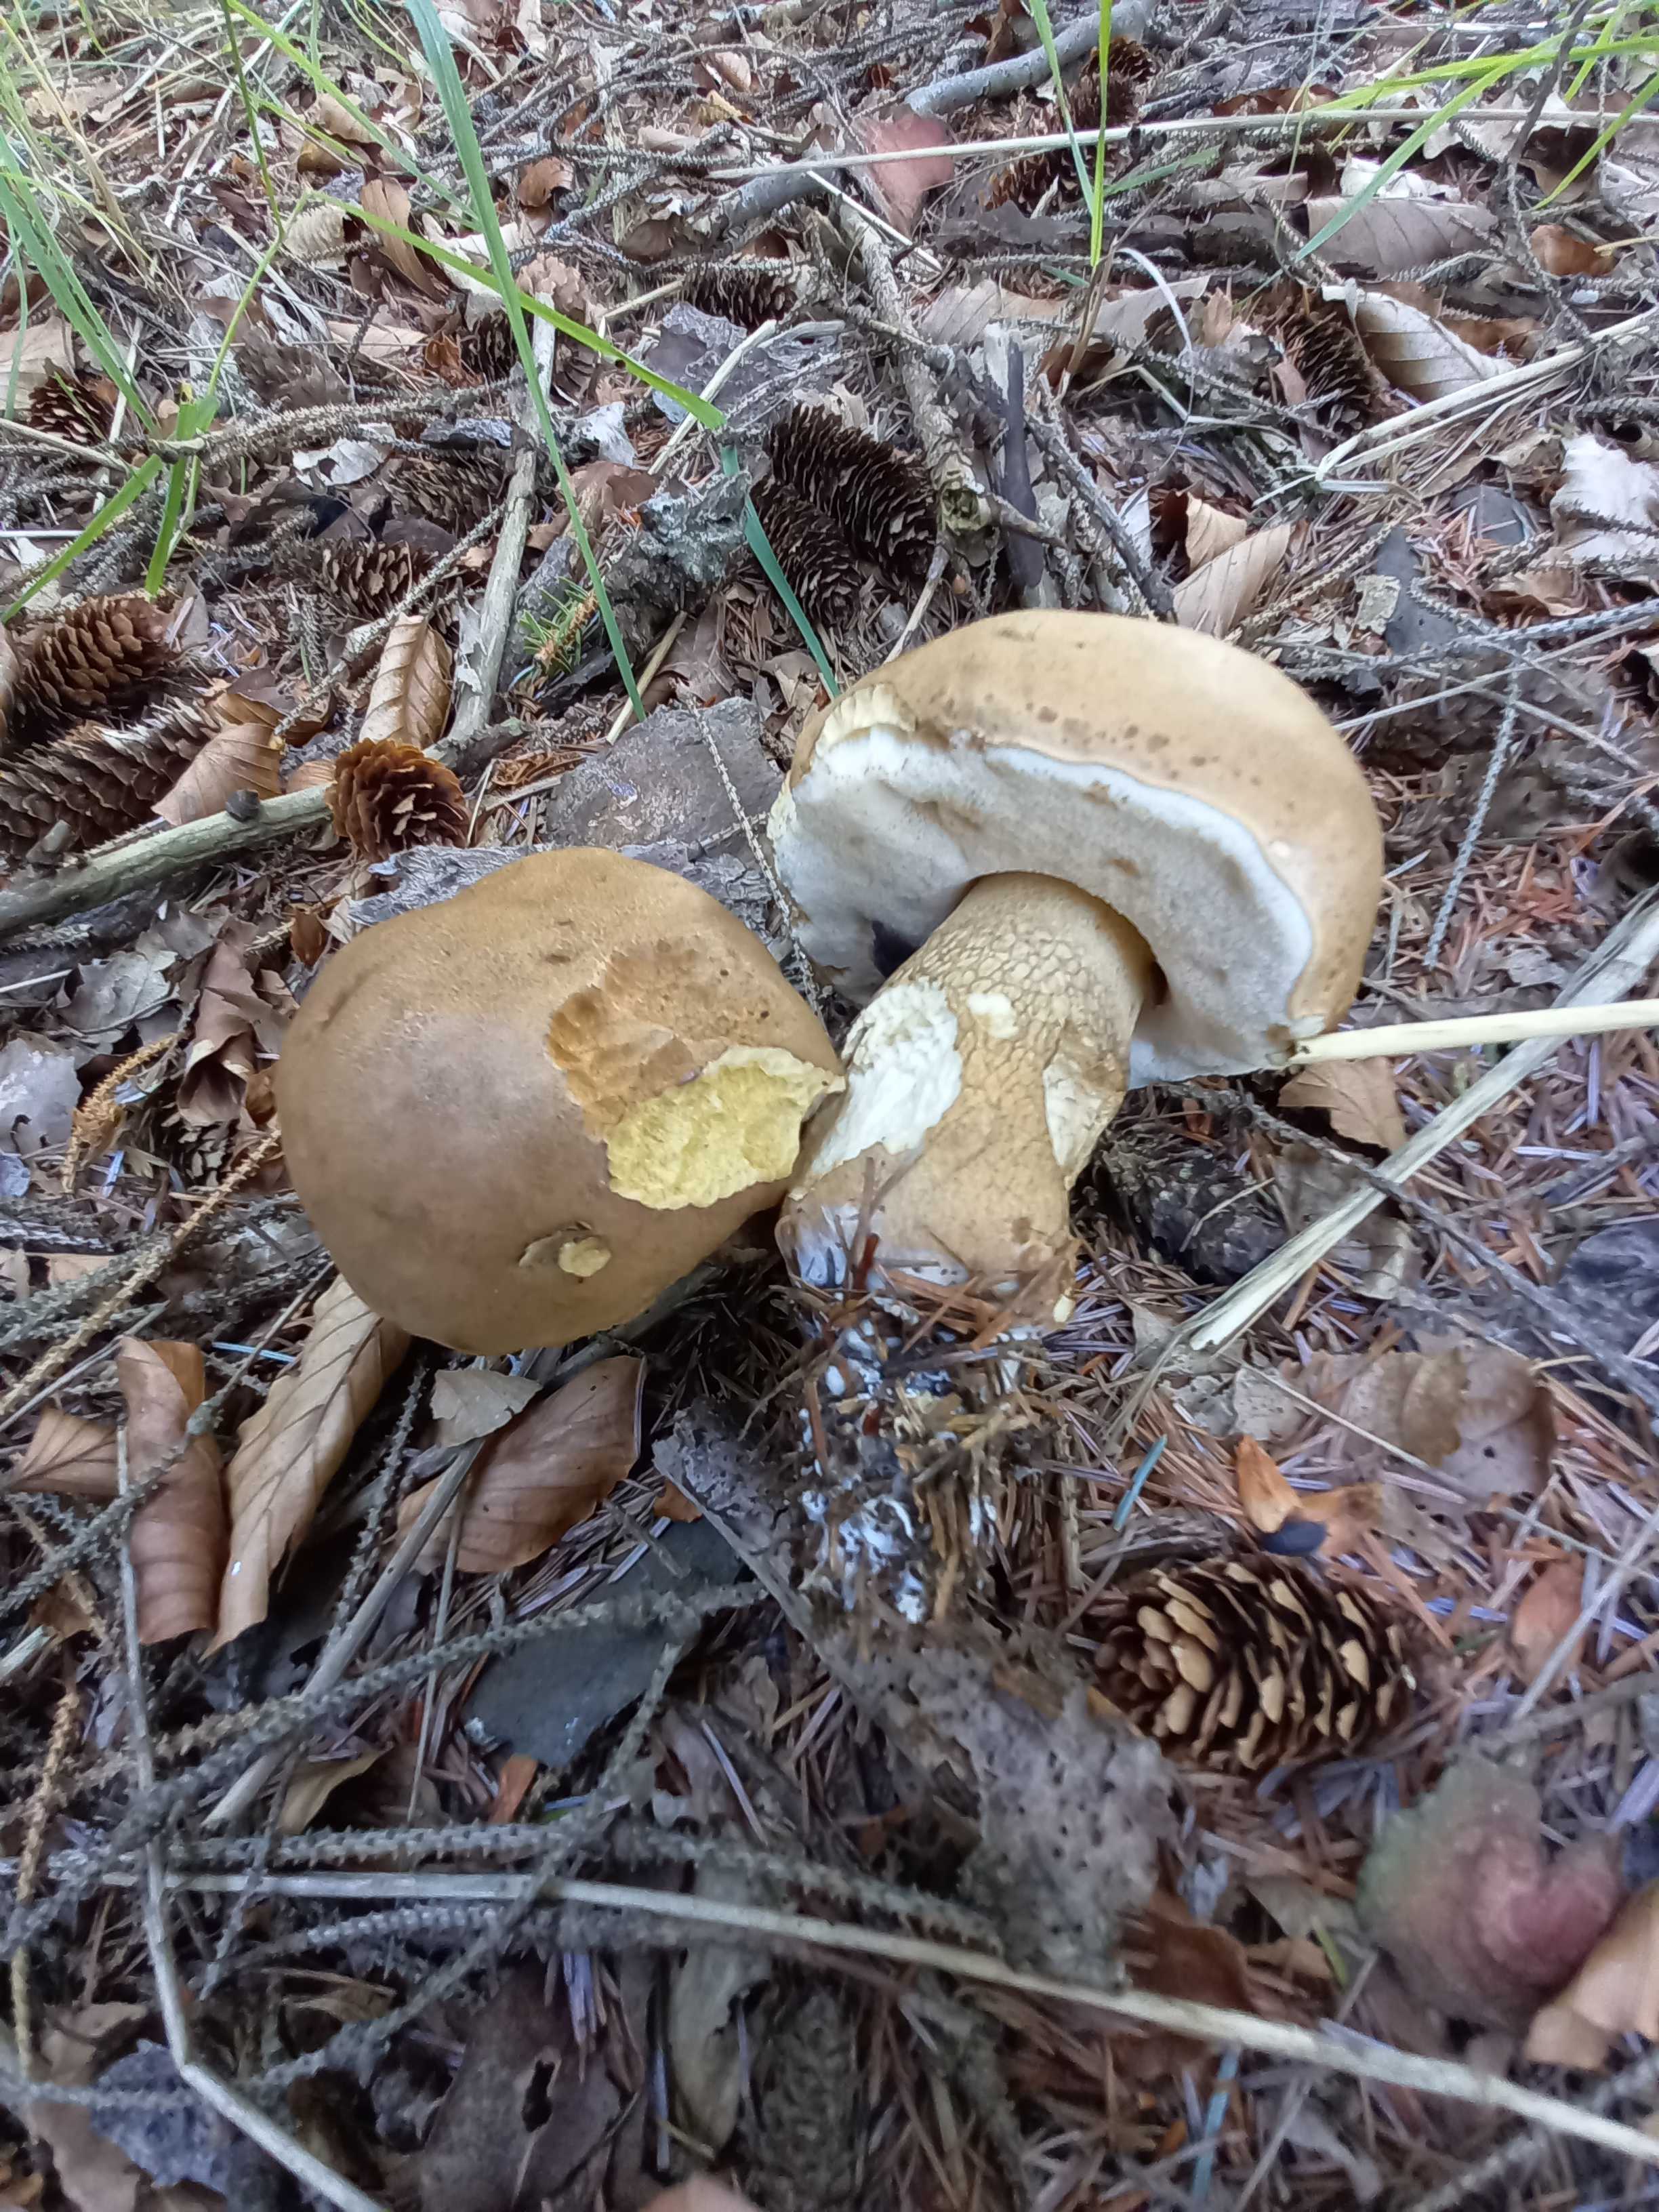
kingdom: Fungi
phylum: Basidiomycota
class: Agaricomycetes
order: Boletales
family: Boletaceae
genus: Tylopilus
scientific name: Tylopilus felleus
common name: galderørhat
